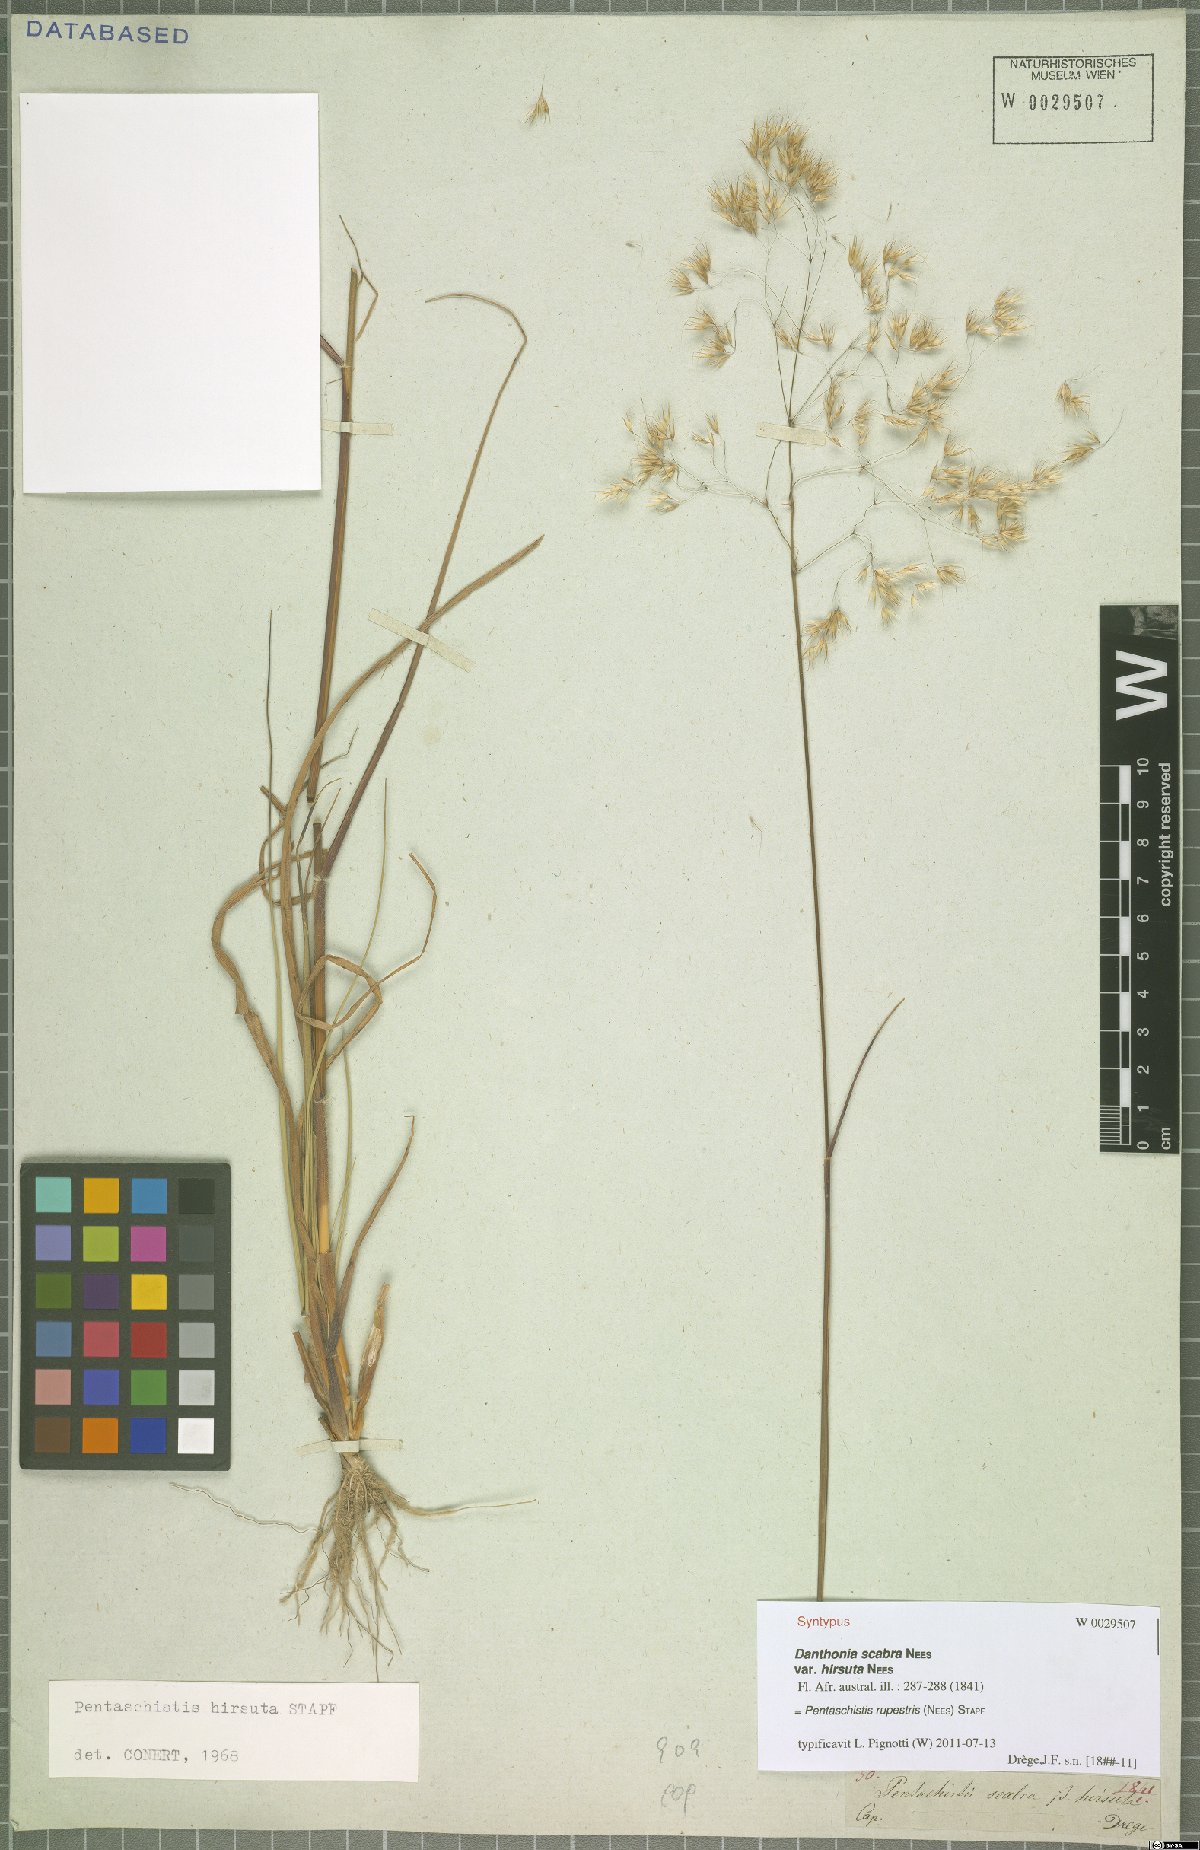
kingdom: Plantae
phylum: Tracheophyta
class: Liliopsida
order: Poales
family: Poaceae
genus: Pentameris
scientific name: Pentameris rupestris
